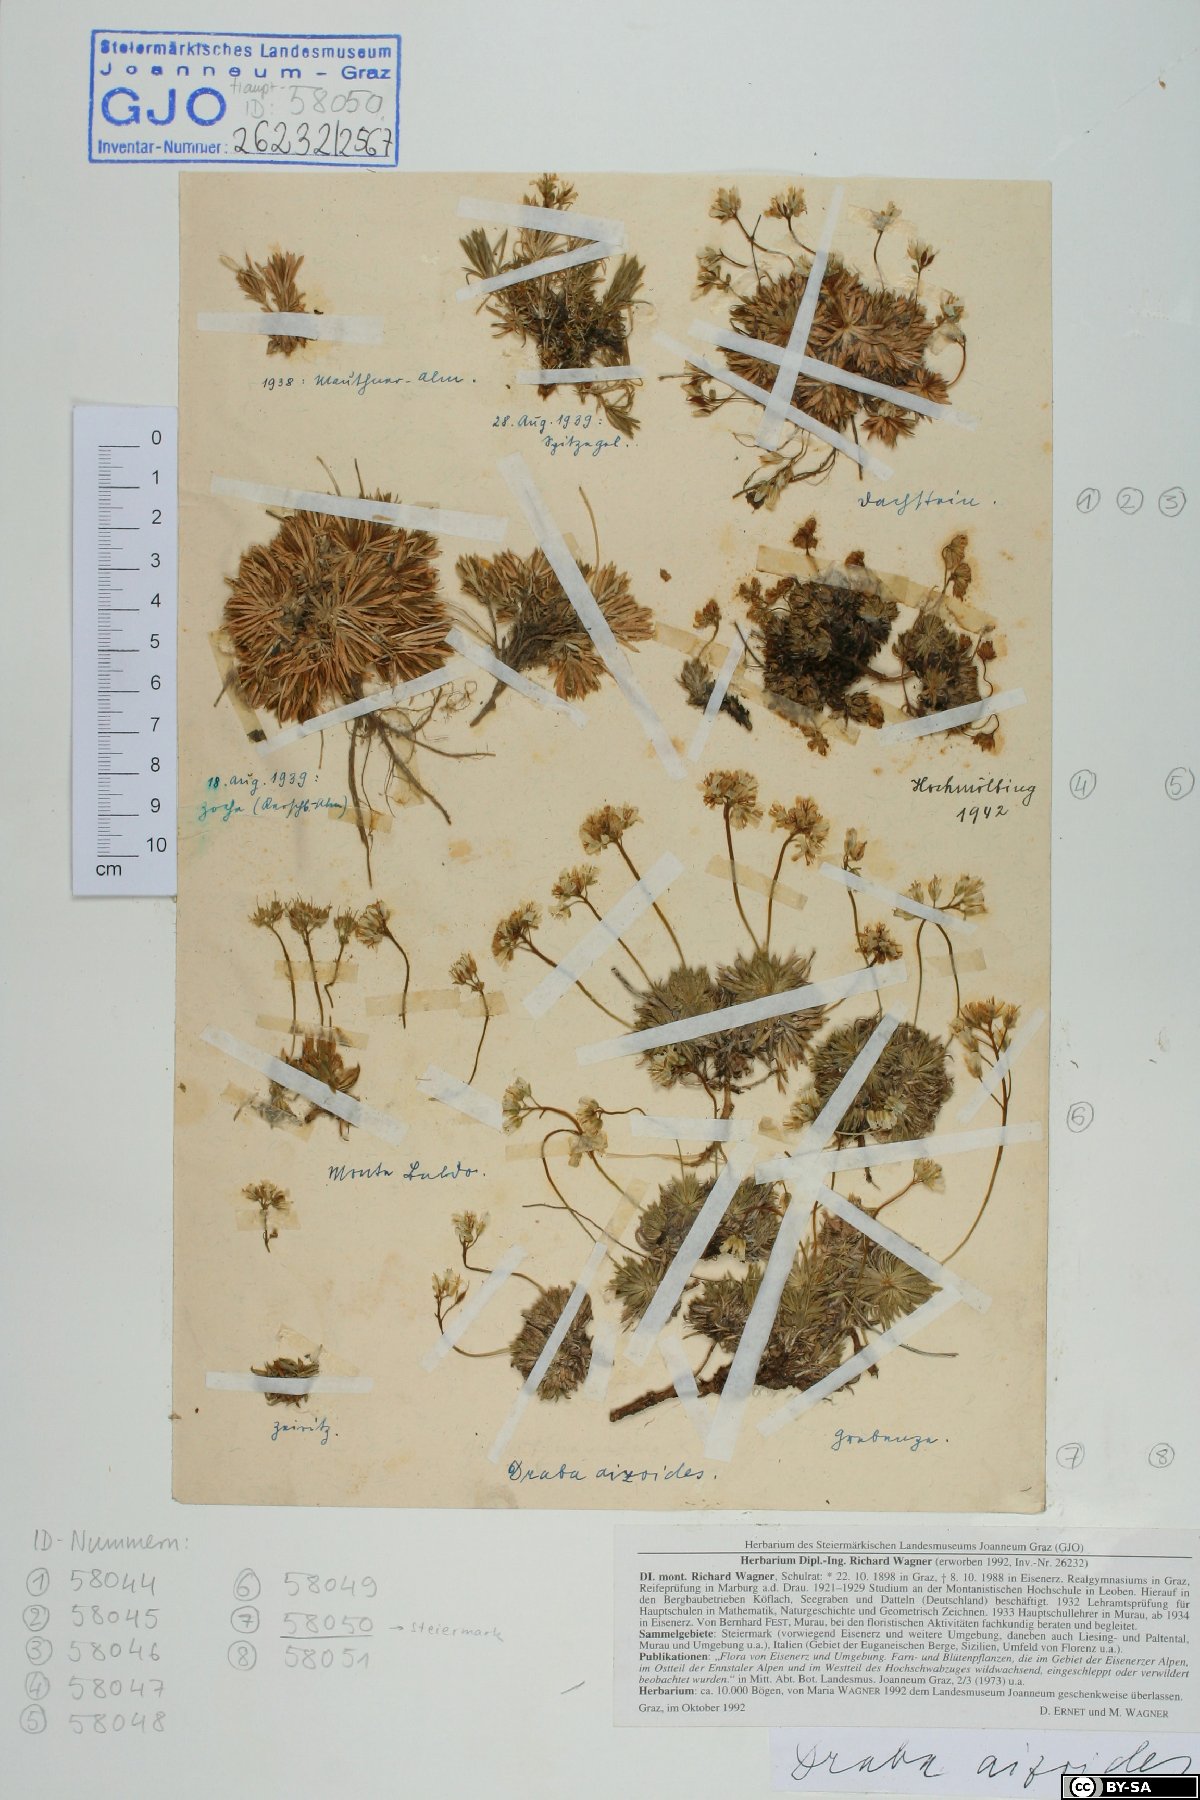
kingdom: Plantae
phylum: Tracheophyta
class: Magnoliopsida
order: Brassicales
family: Brassicaceae
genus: Draba
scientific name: Draba aizoides
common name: Yellow whitlowgrass
